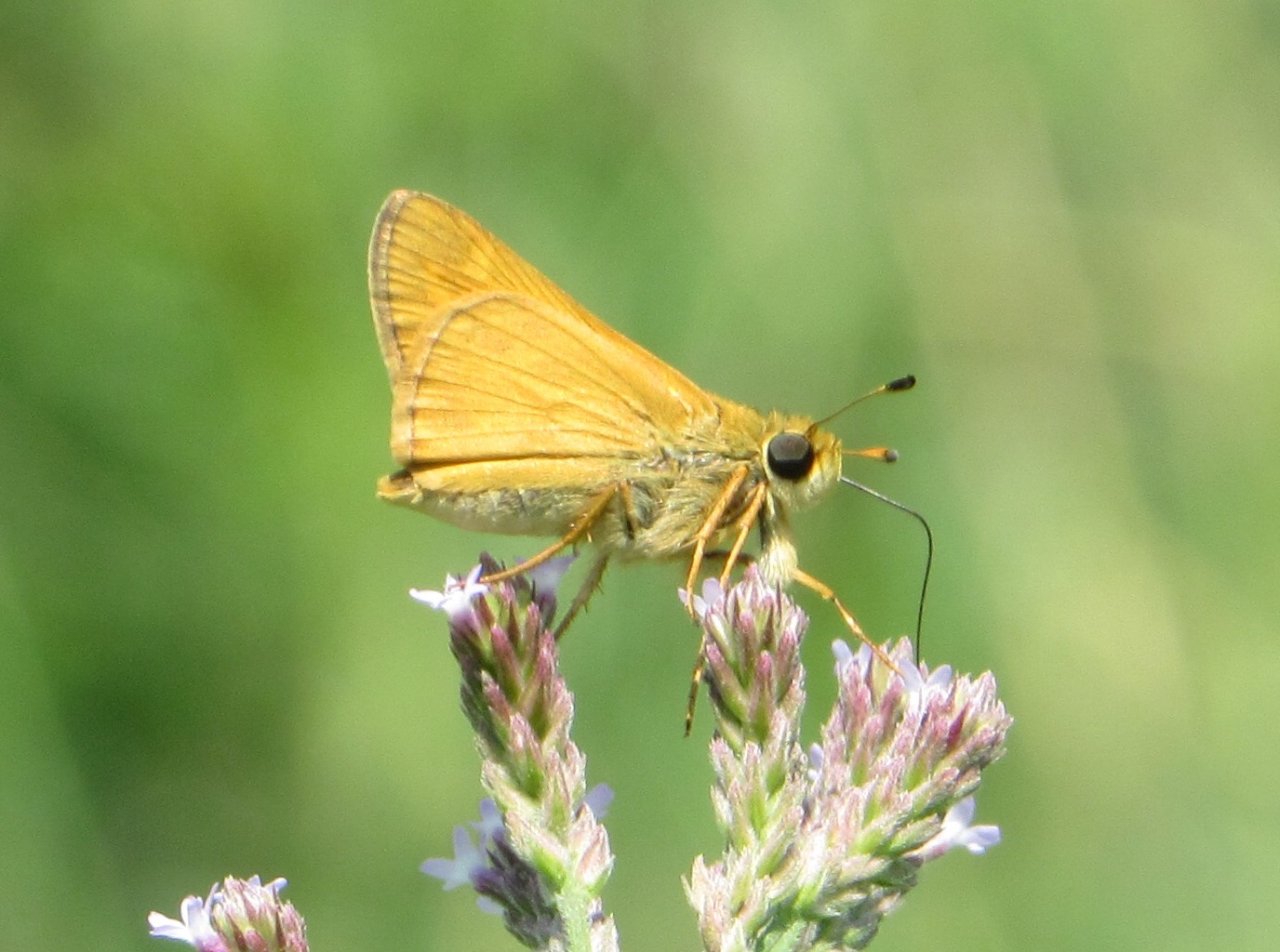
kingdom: Animalia
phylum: Arthropoda
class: Insecta
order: Lepidoptera
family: Hesperiidae
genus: Atalopedes
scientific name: Atalopedes campestris
